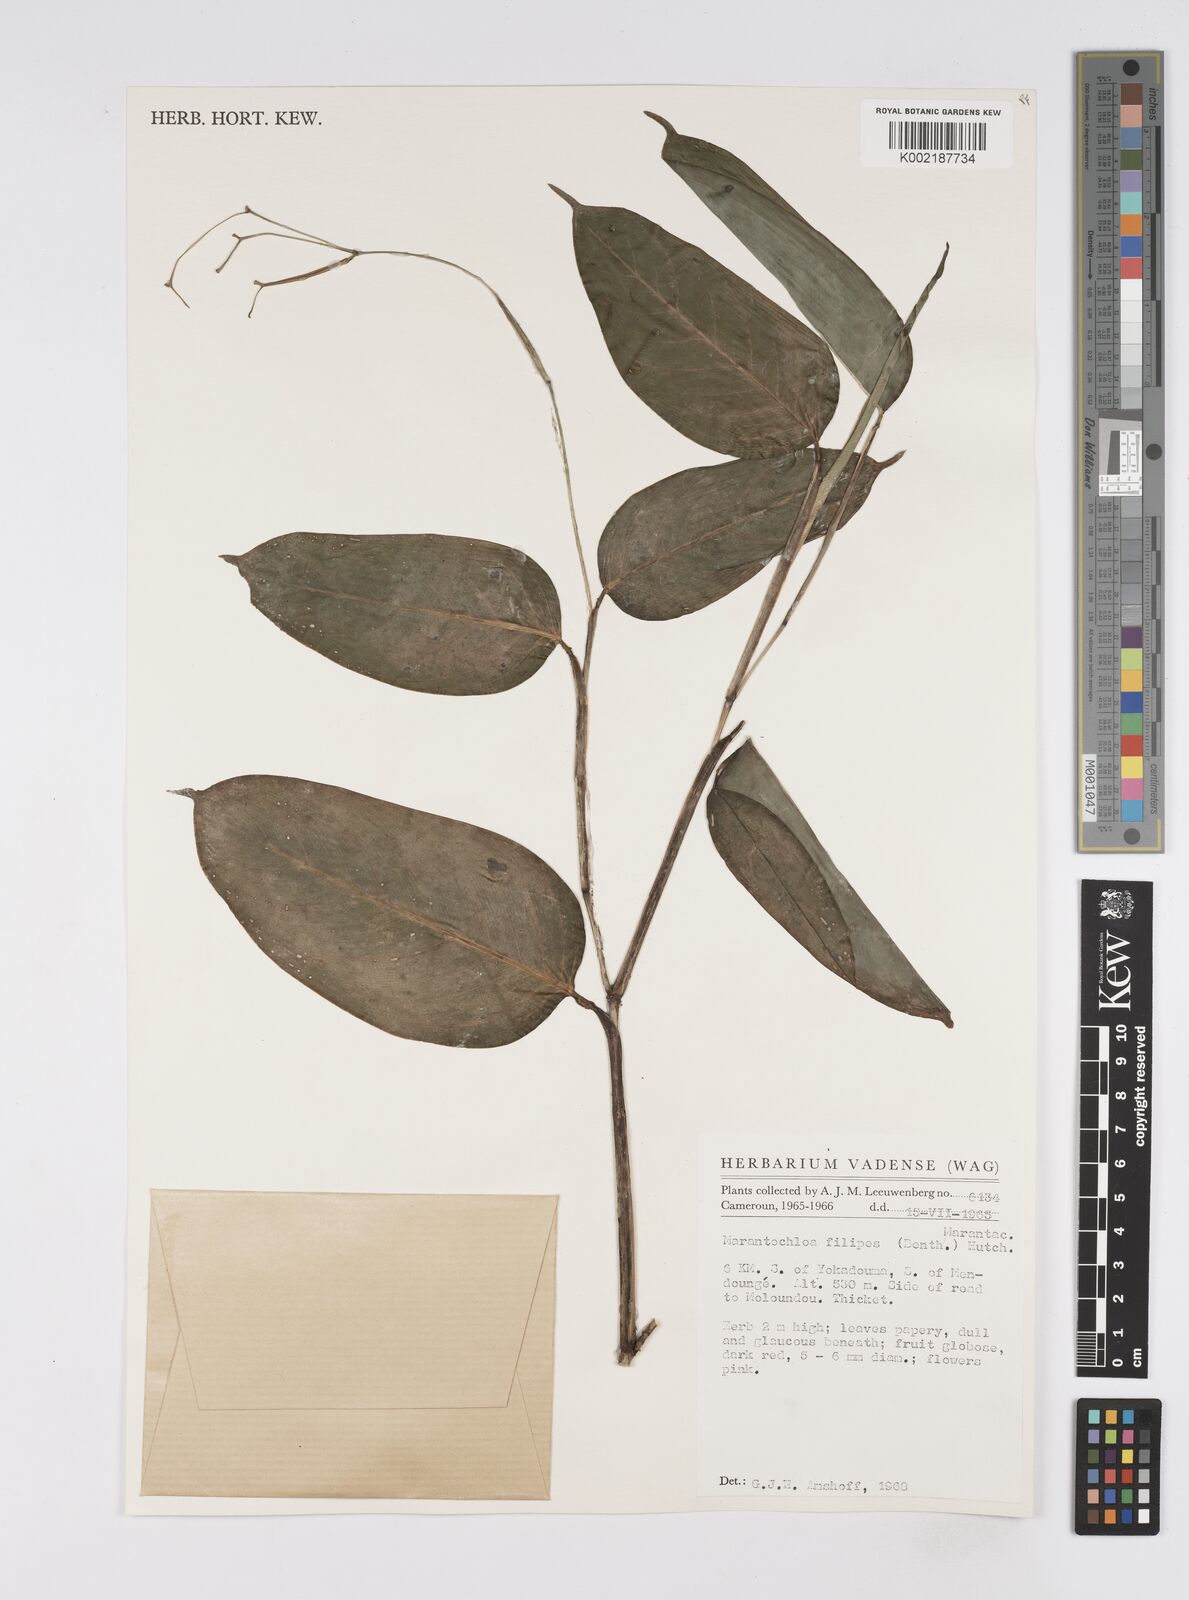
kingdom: Plantae
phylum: Tracheophyta
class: Liliopsida
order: Zingiberales
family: Marantaceae
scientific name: Marantaceae
